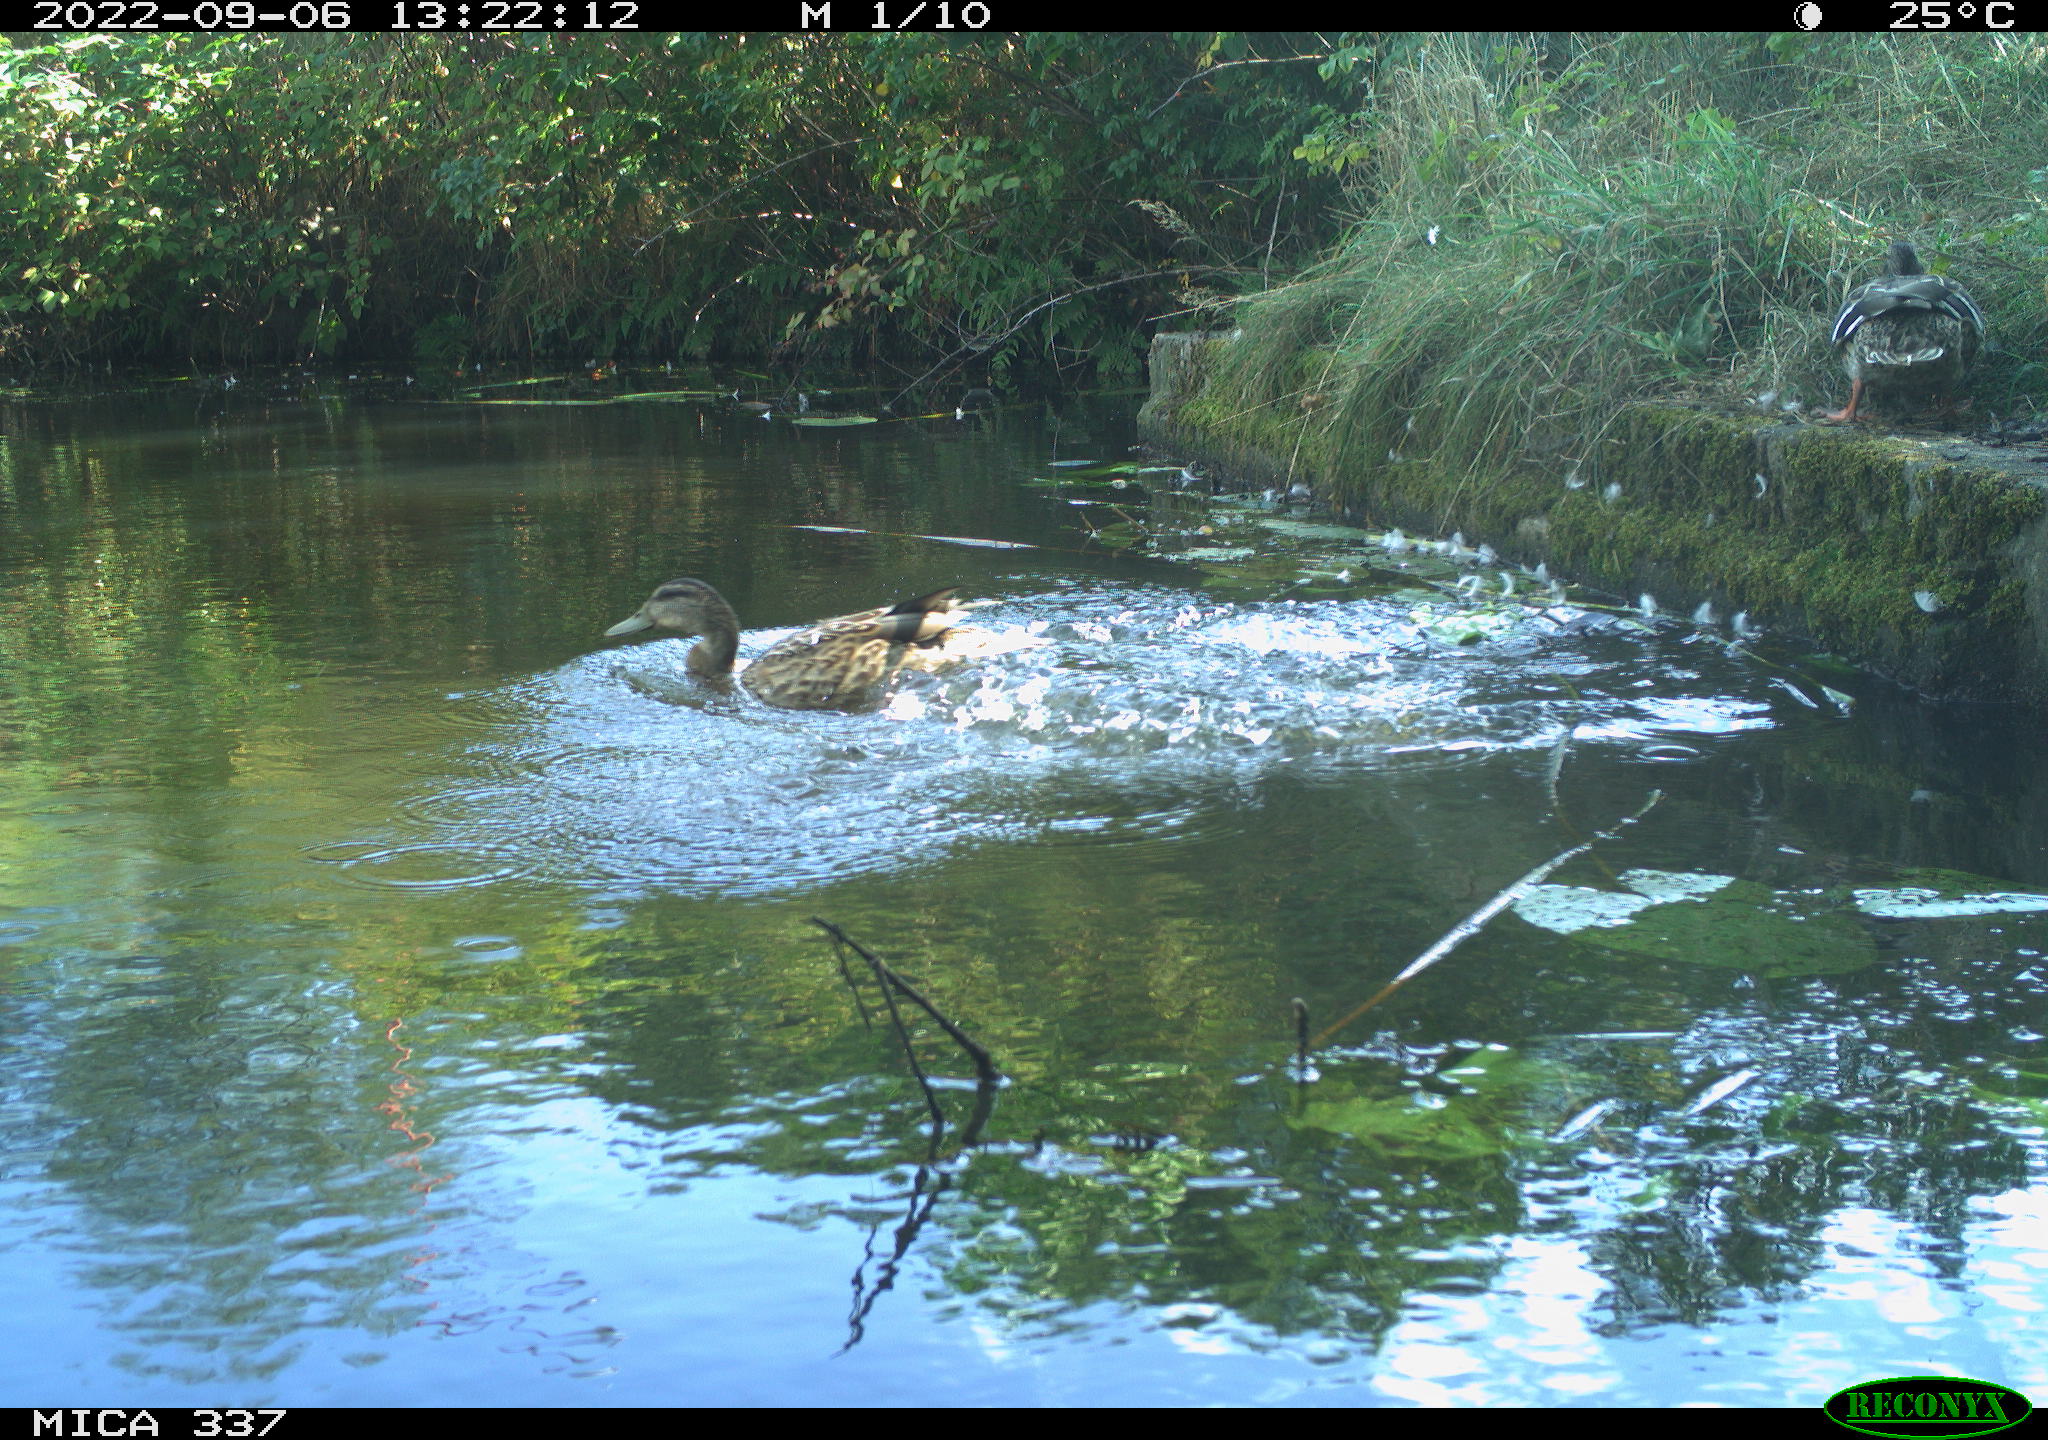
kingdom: Animalia
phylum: Chordata
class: Aves
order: Anseriformes
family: Anatidae
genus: Anas
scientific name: Anas platyrhynchos
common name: Mallard
